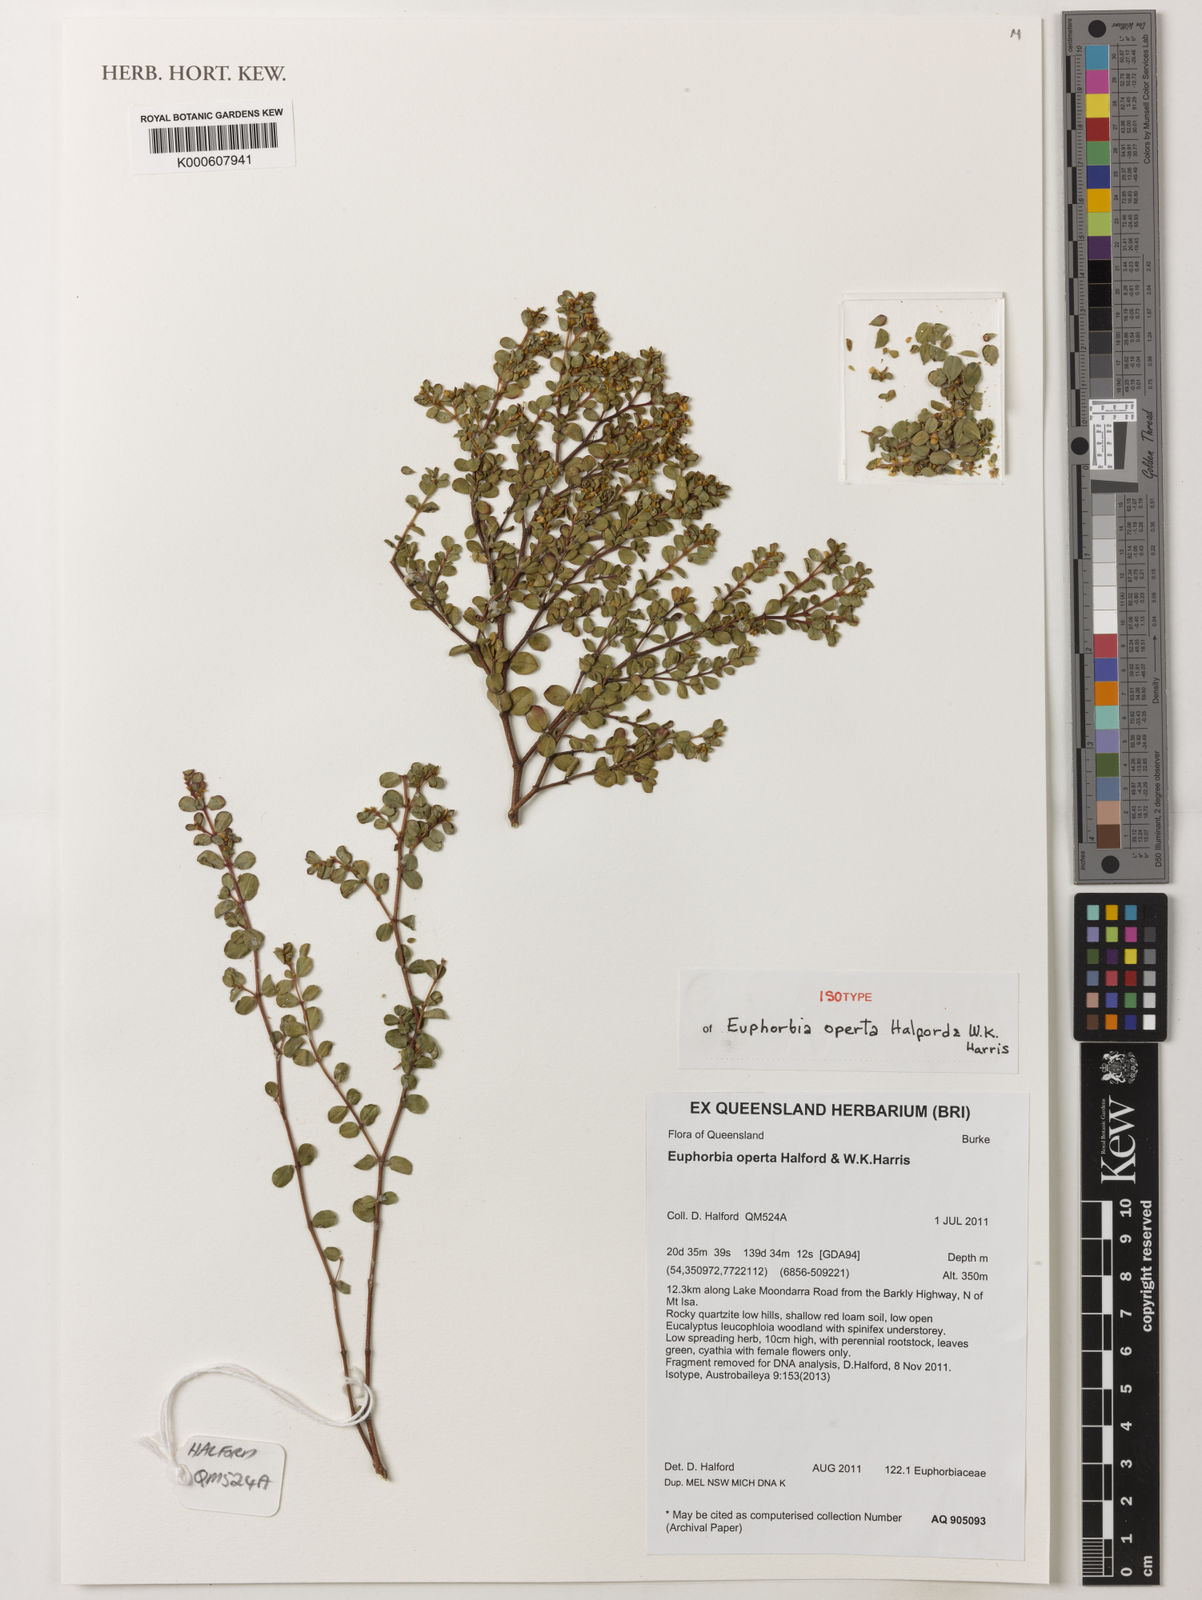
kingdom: Plantae
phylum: Tracheophyta
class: Magnoliopsida
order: Malpighiales
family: Euphorbiaceae
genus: Euphorbia
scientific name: Euphorbia operta
